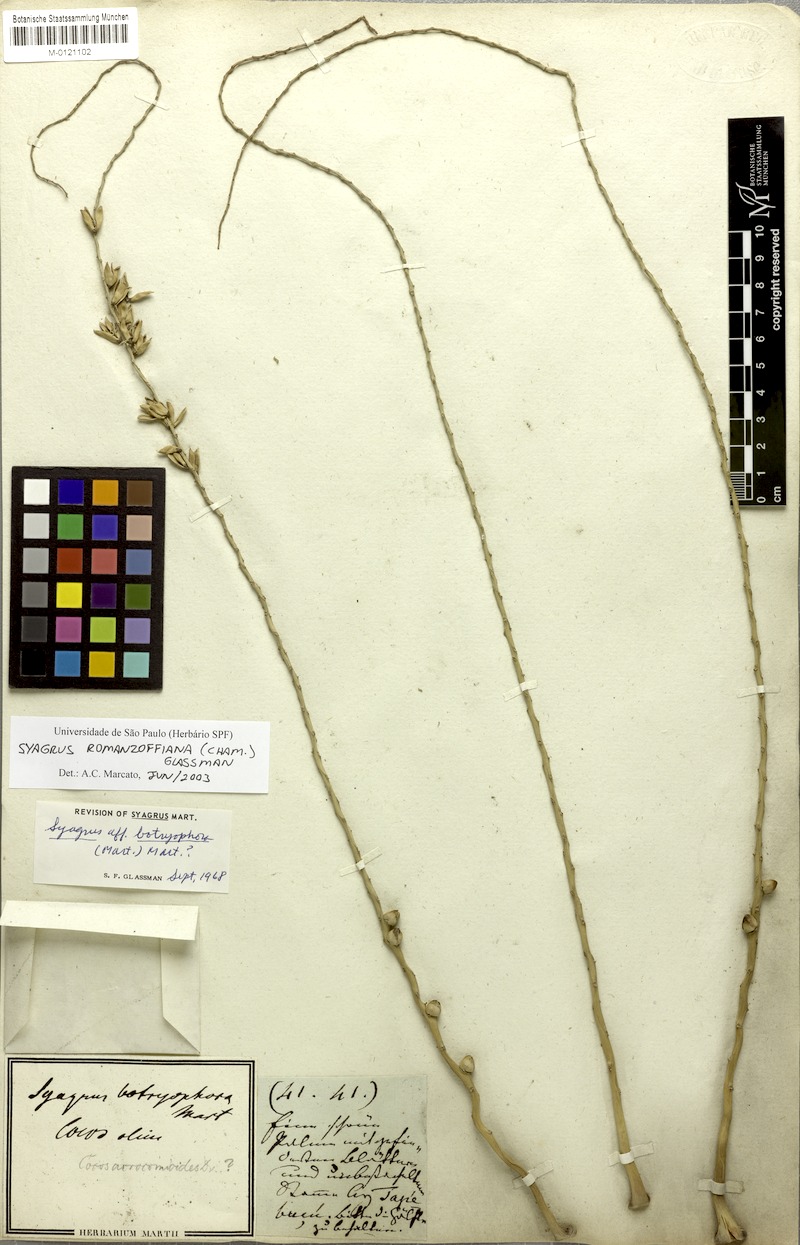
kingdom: Plantae
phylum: Tracheophyta
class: Liliopsida
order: Arecales
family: Arecaceae
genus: Syagrus
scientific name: Syagrus romanzoffiana
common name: Queen palm
